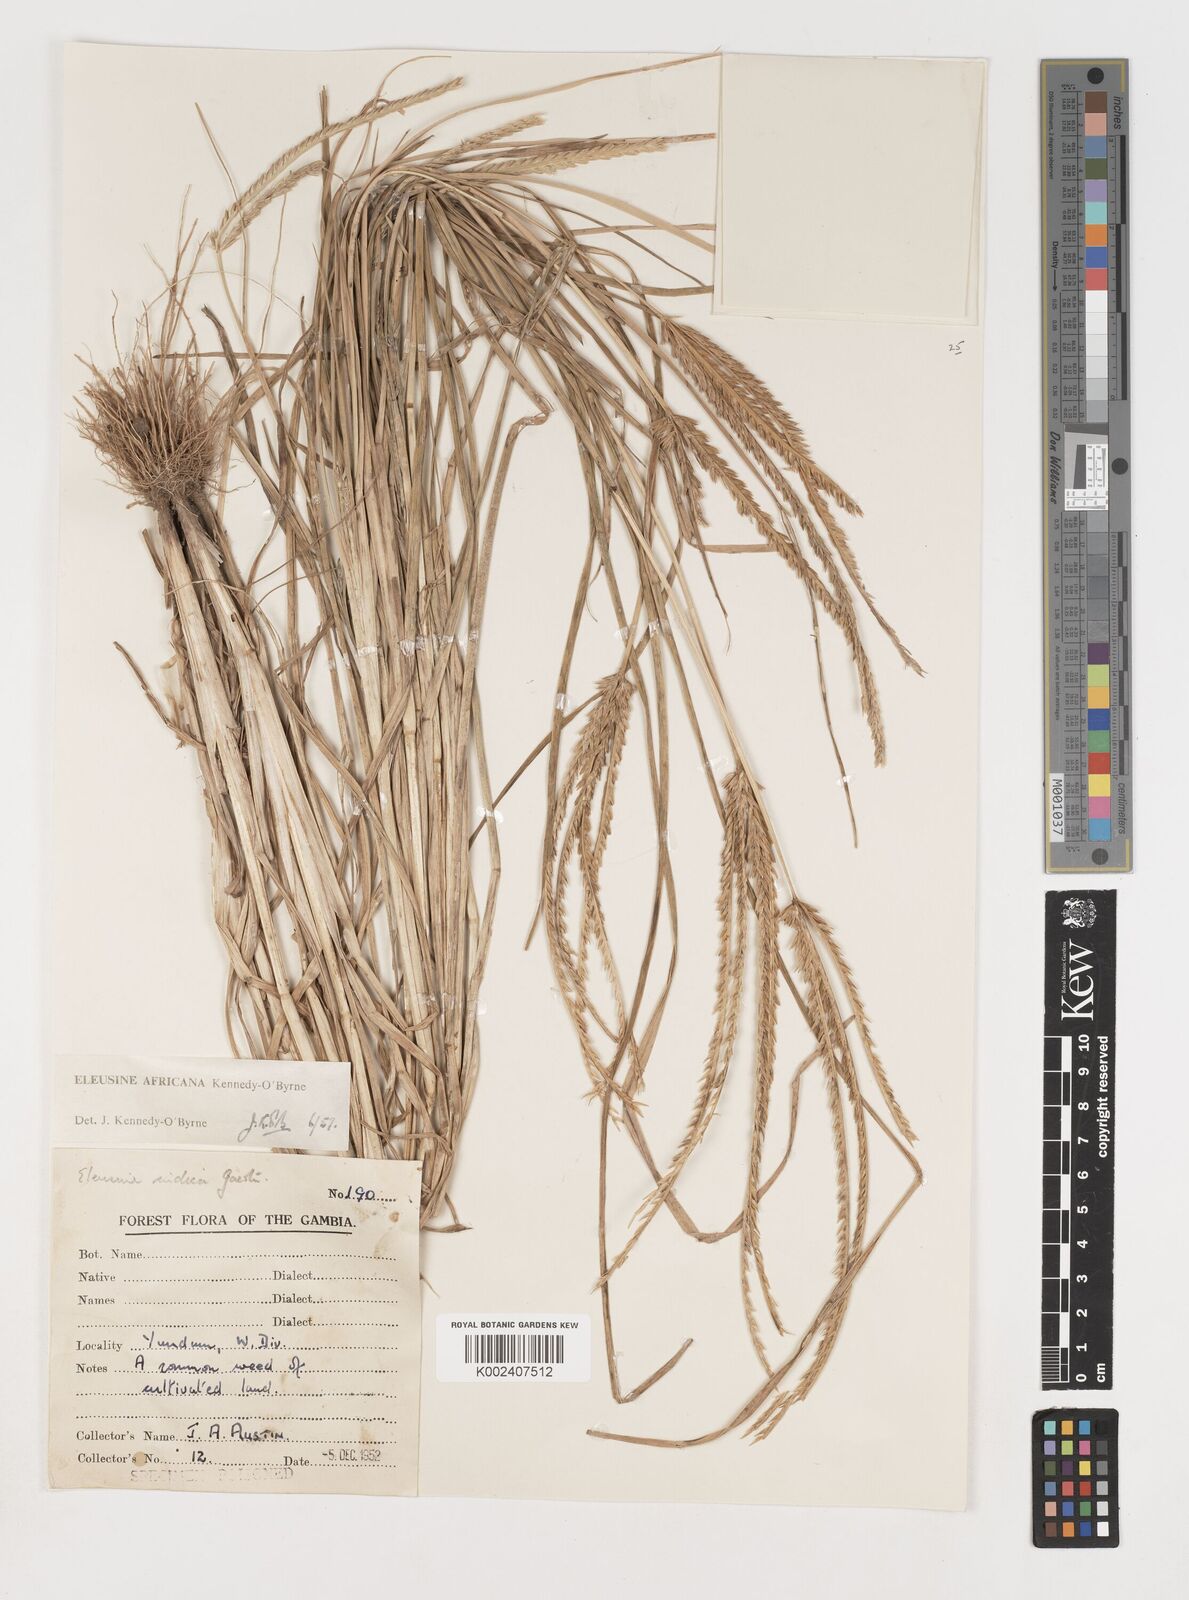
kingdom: Plantae
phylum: Tracheophyta
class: Liliopsida
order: Poales
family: Poaceae
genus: Eleusine
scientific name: Eleusine africana
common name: Wild african finger millet
